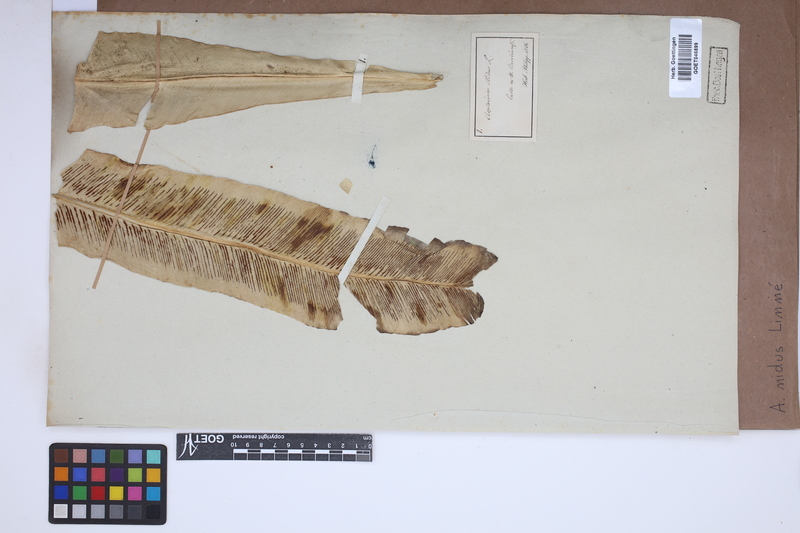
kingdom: Plantae
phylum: Tracheophyta
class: Polypodiopsida
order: Polypodiales
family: Aspleniaceae
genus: Asplenium
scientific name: Asplenium nidus
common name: Bird's-nest fern
